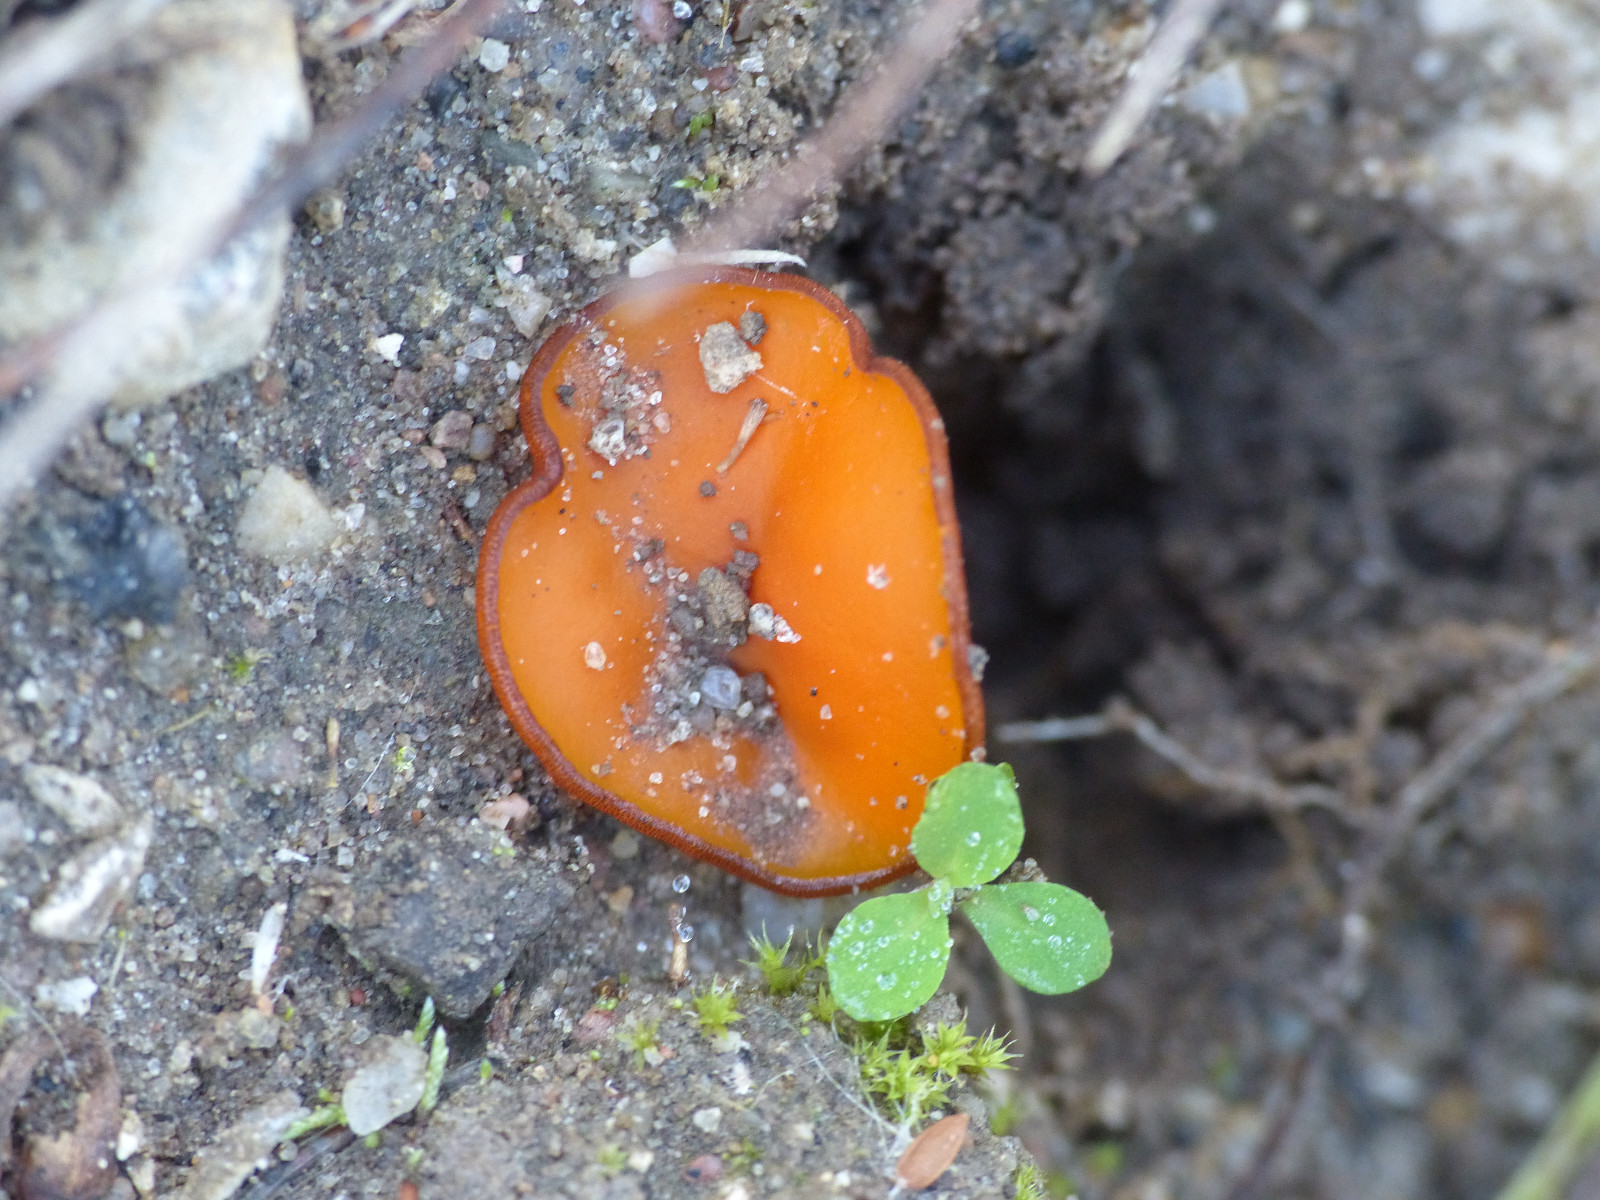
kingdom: Fungi
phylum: Ascomycota
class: Pezizomycetes
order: Pezizales
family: Pyronemataceae
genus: Melastiza
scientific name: Melastiza cornubiensis
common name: mørkrandet rødbæger
